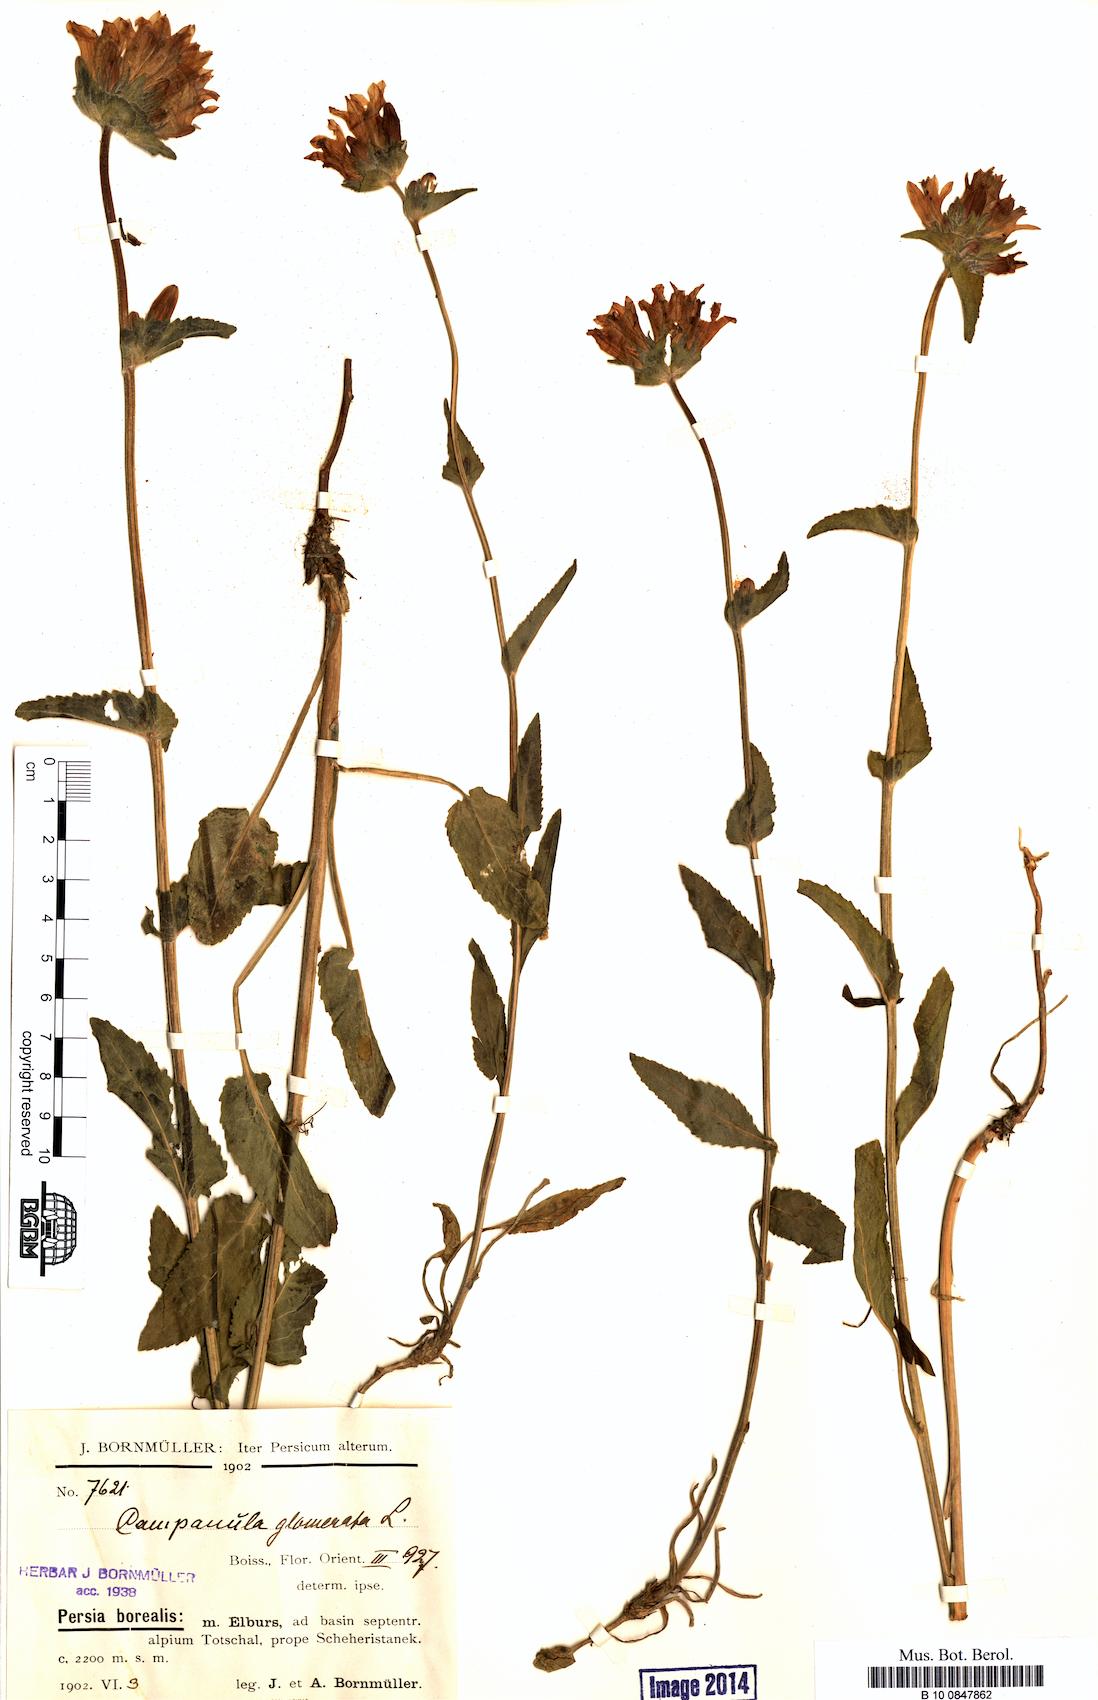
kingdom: Plantae
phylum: Tracheophyta
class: Magnoliopsida
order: Asterales
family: Campanulaceae
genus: Campanula
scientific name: Campanula glomerata
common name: Clustered bellflower
